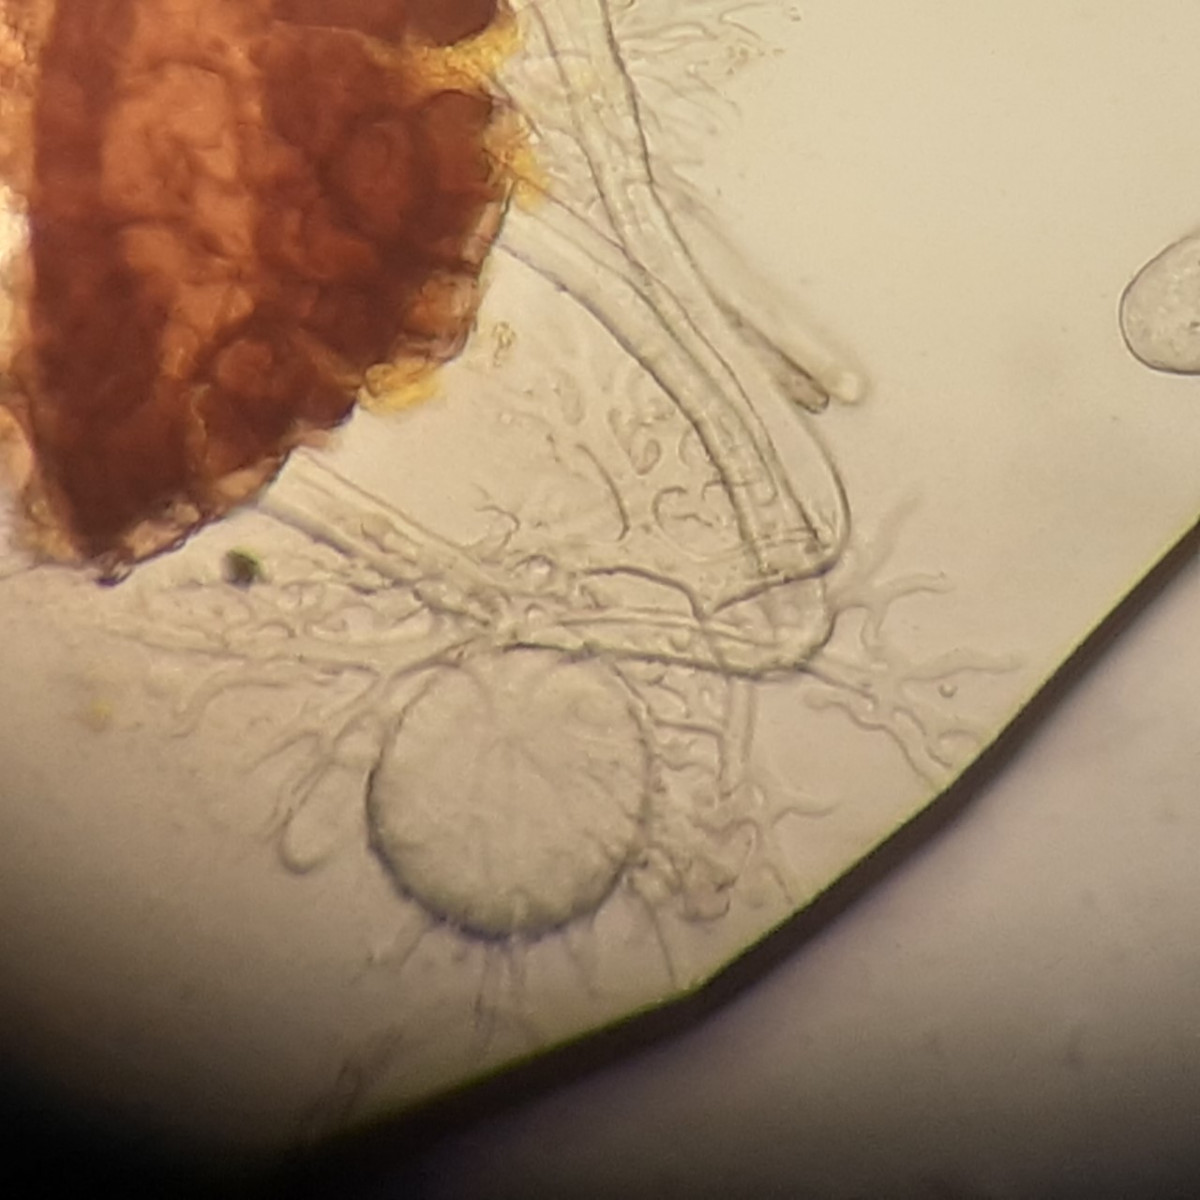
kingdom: Fungi
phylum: Ascomycota
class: Leotiomycetes
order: Helotiales
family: Erysiphaceae
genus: Erysiphe
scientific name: Erysiphe palczewskii
